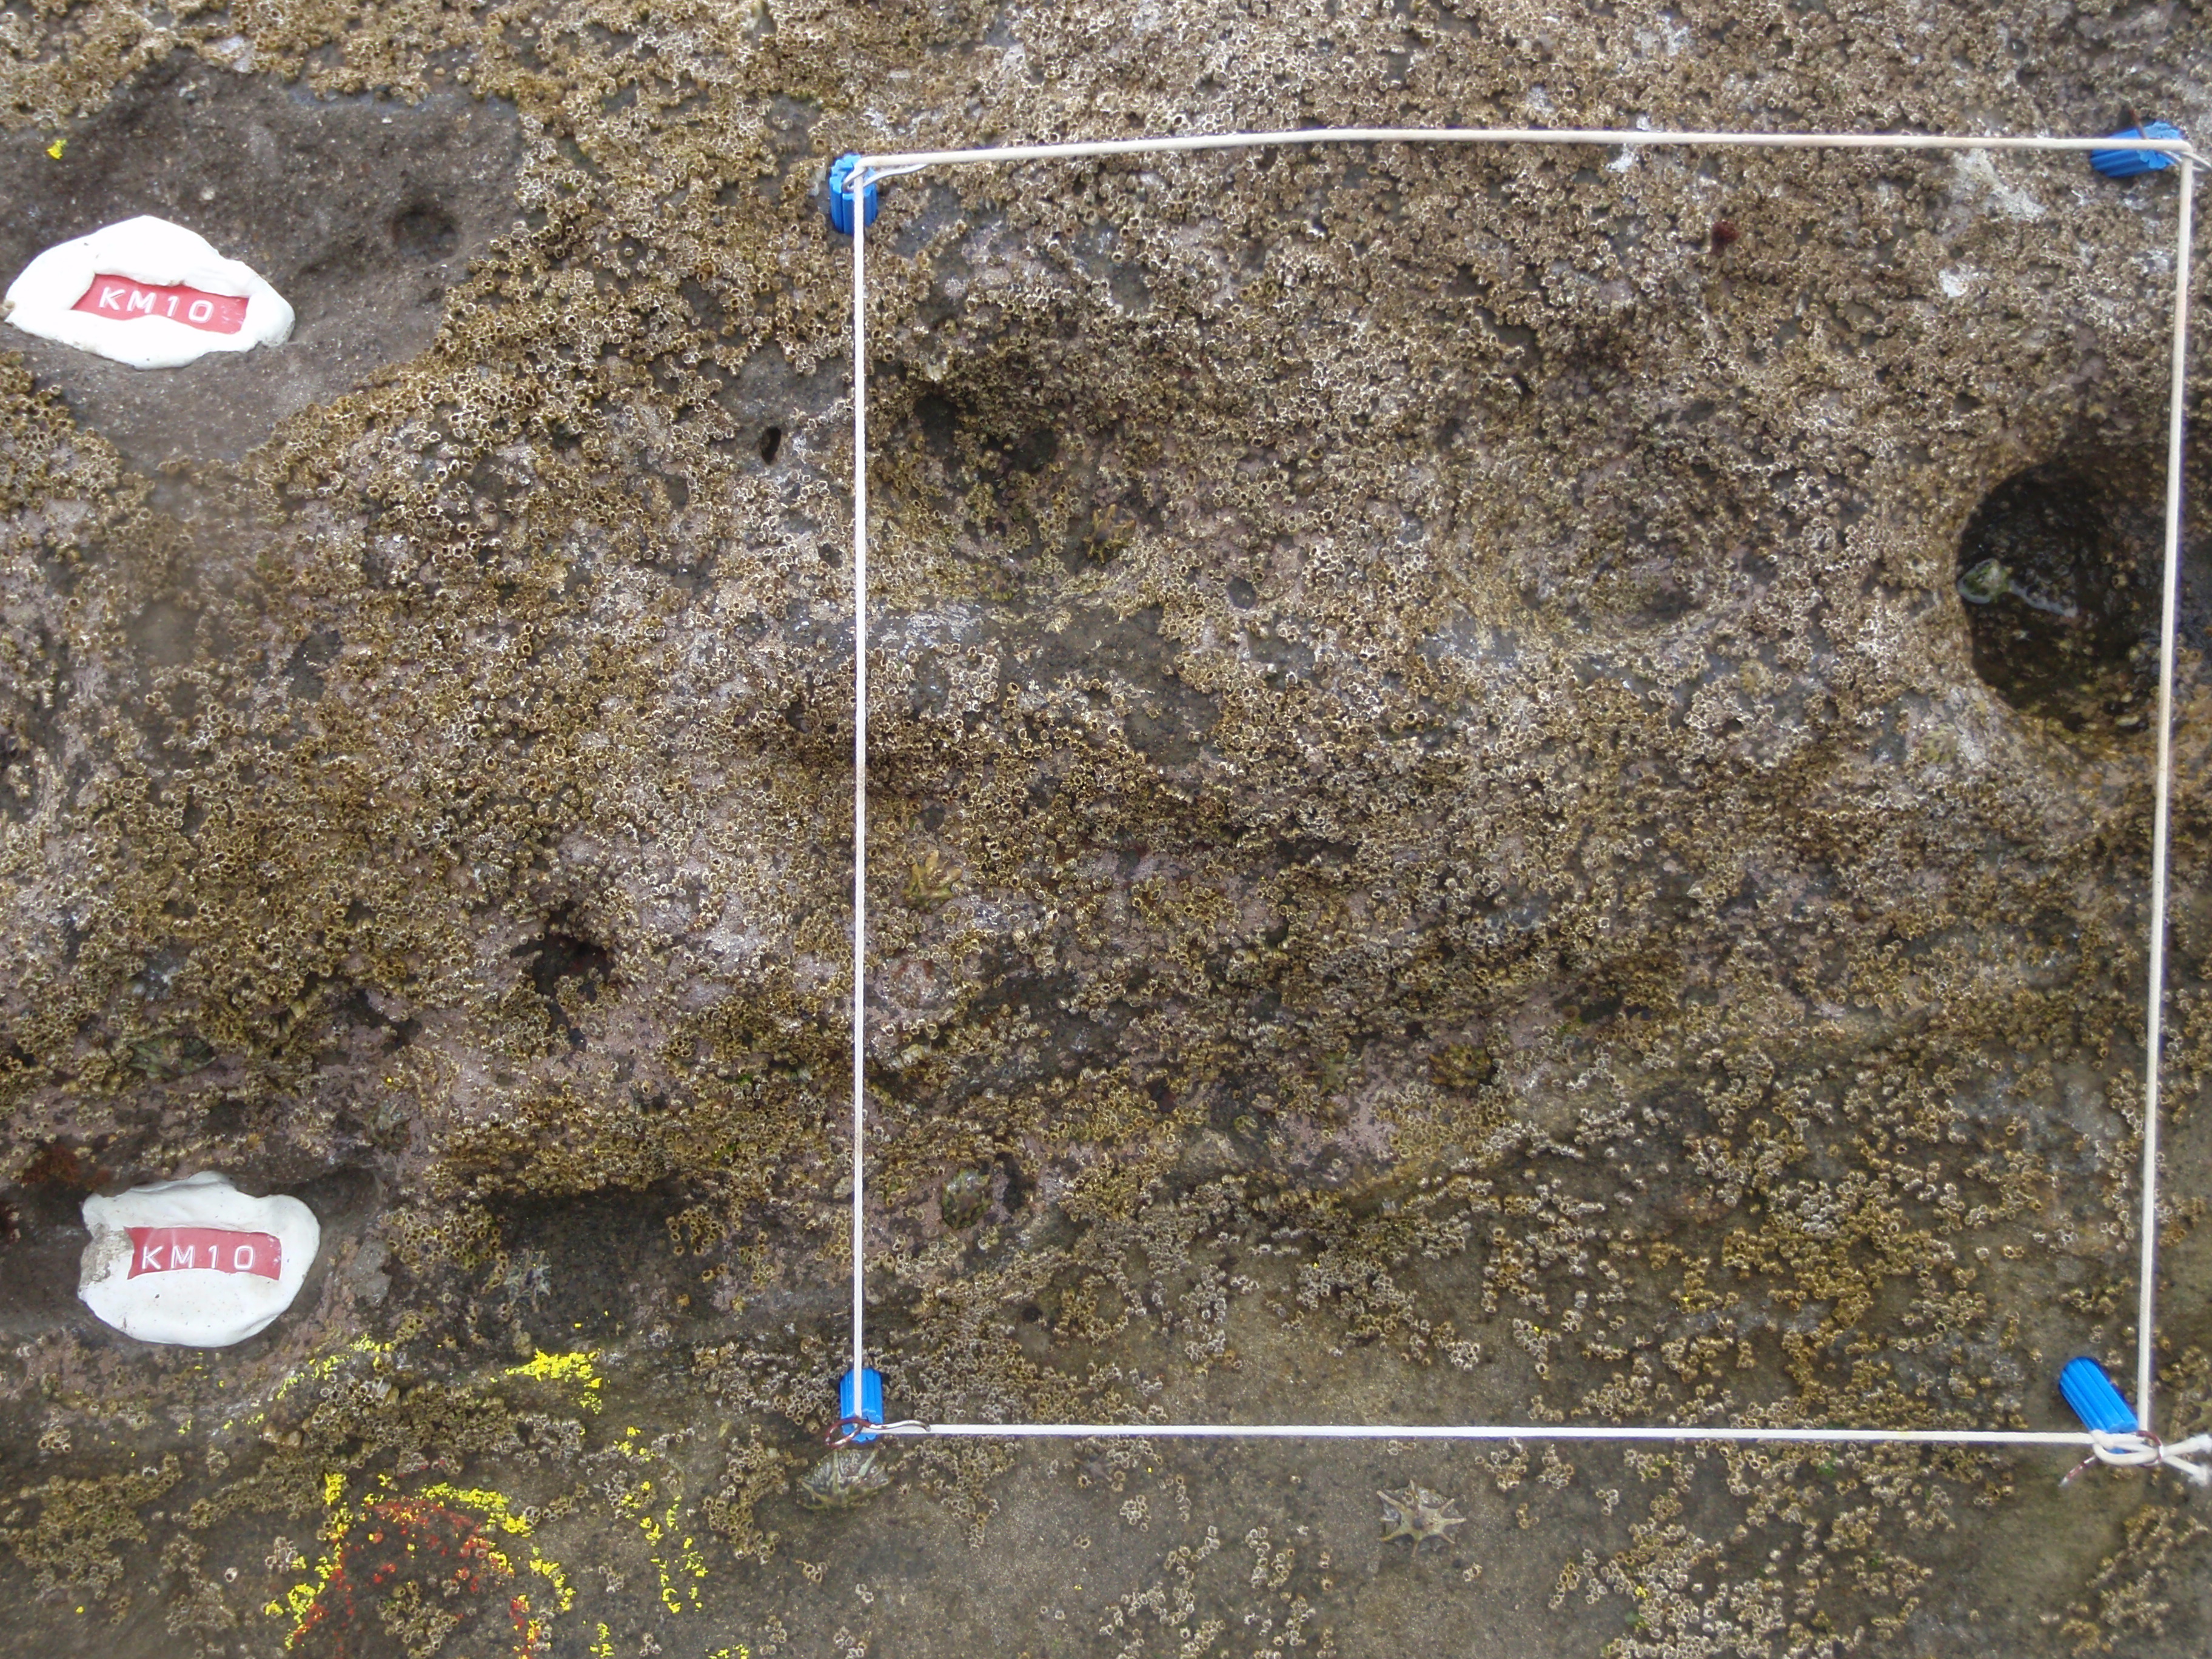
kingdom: Animalia
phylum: Arthropoda
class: Maxillopoda
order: Sessilia
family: Chthamalidae
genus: Chthamalus
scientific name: Chthamalus challengeri
